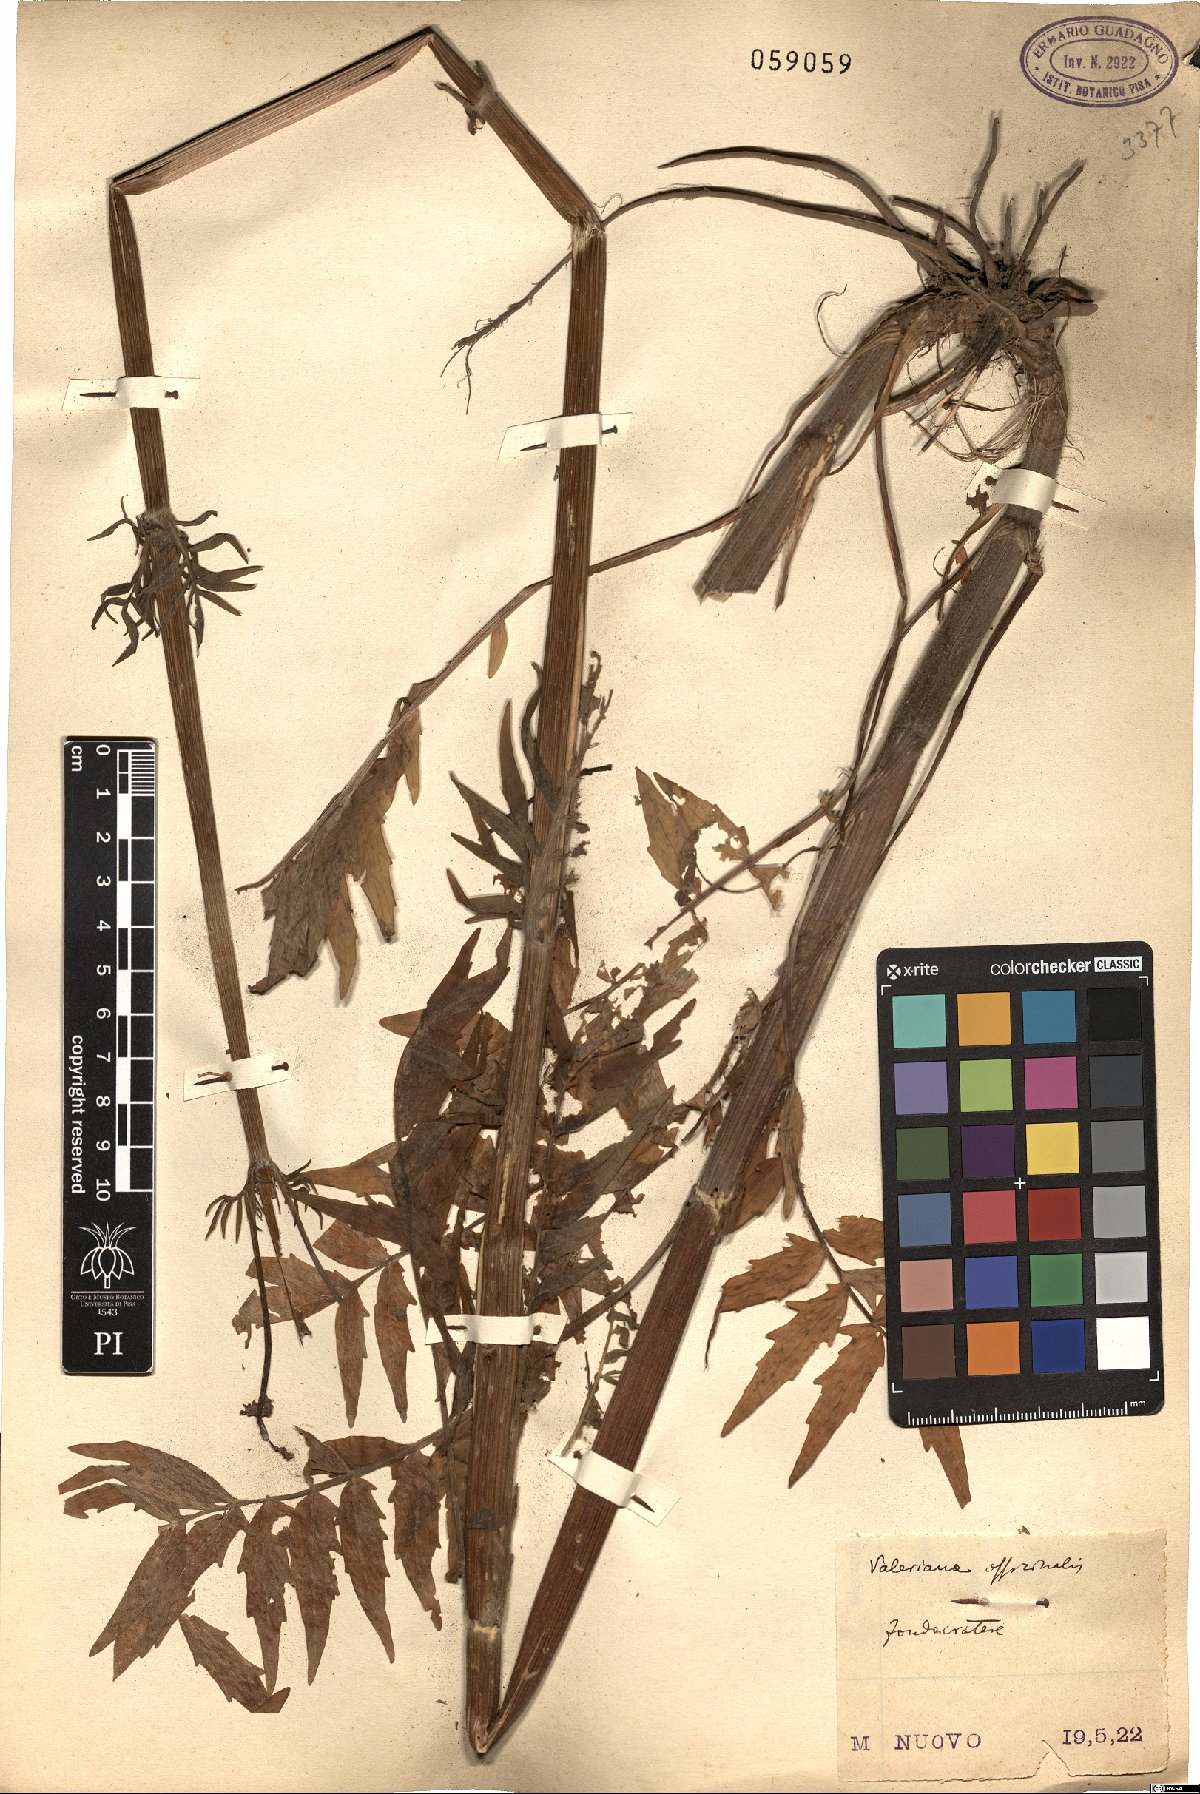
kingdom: Plantae
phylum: Tracheophyta
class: Magnoliopsida
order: Dipsacales
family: Caprifoliaceae
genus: Valeriana
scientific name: Valeriana officinalis
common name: Common valerian
